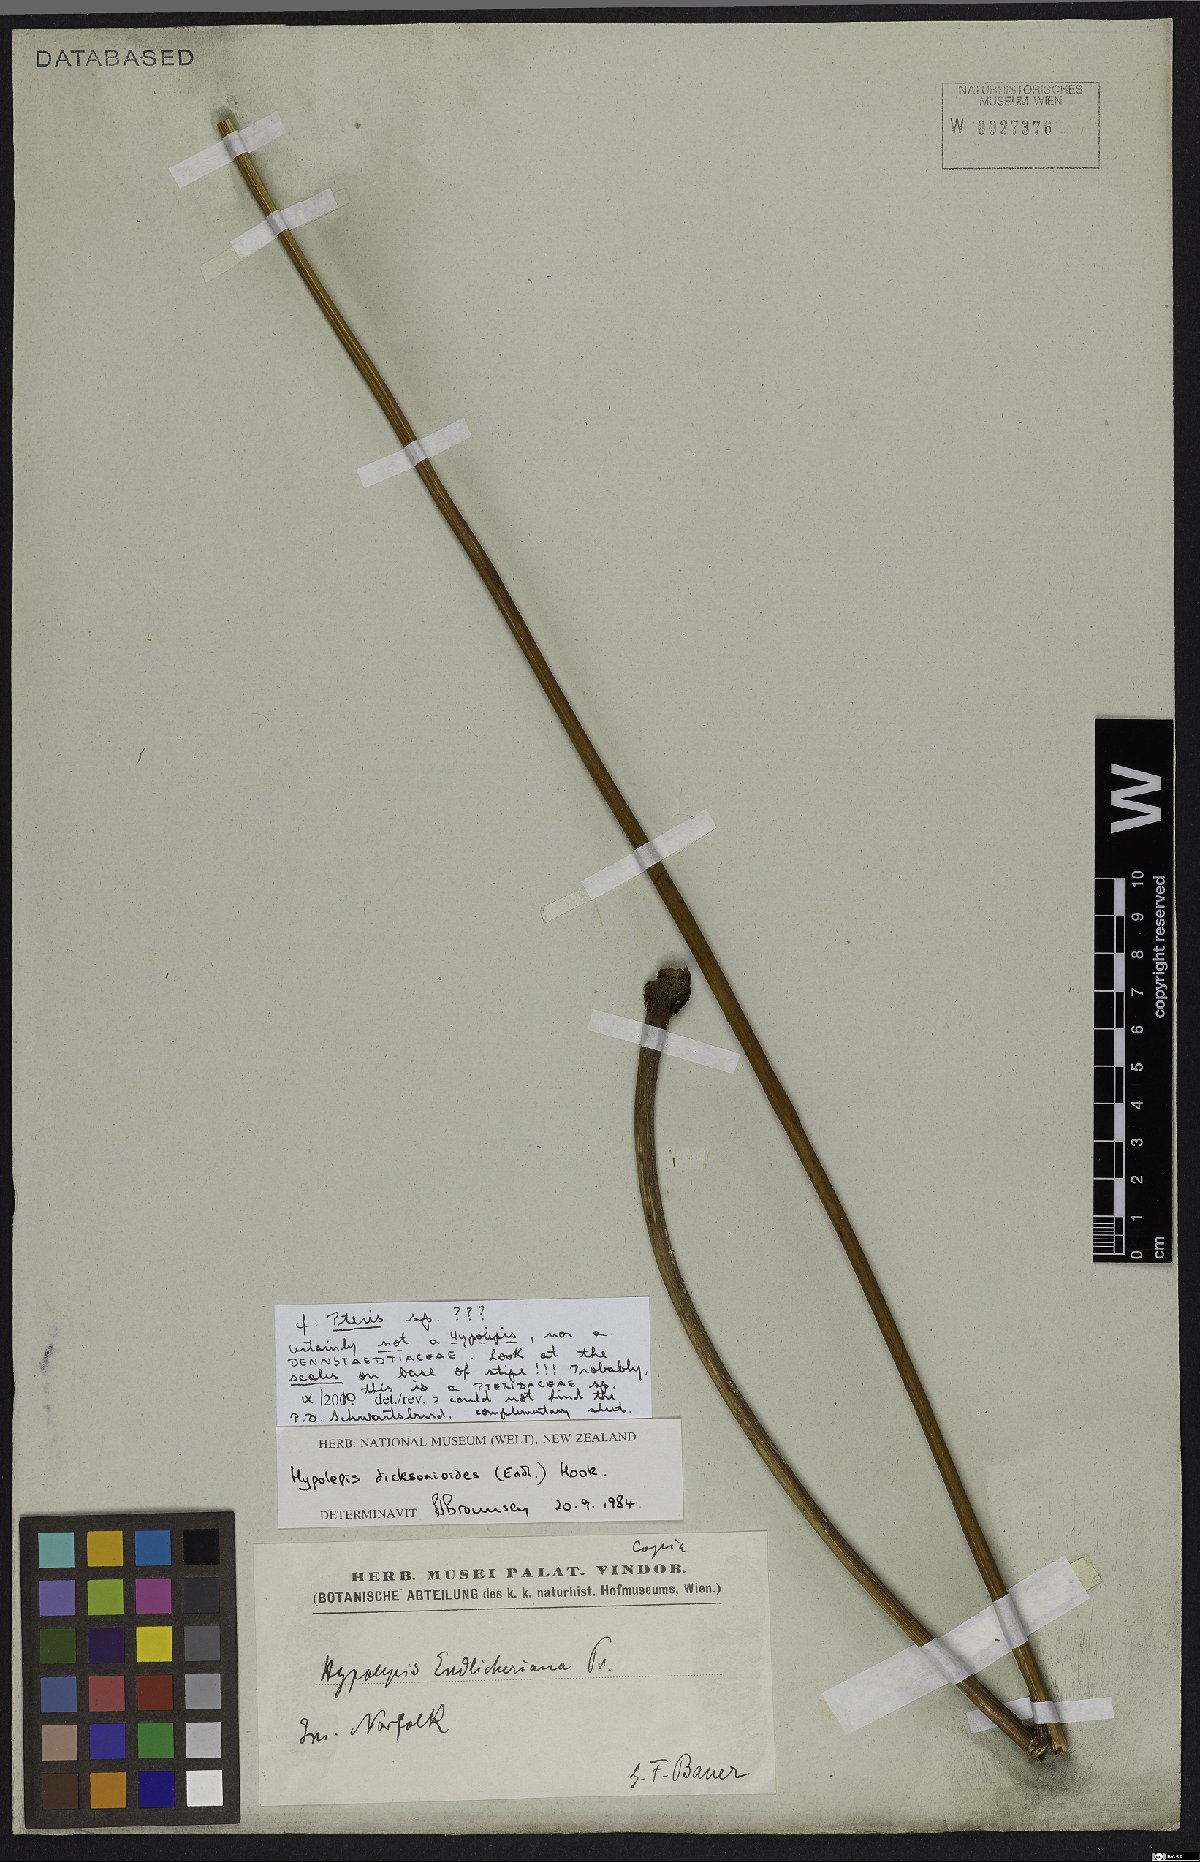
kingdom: Plantae
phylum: Tracheophyta
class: Polypodiopsida
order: Polypodiales
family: Pteridaceae
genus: Pteris
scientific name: Pteris
